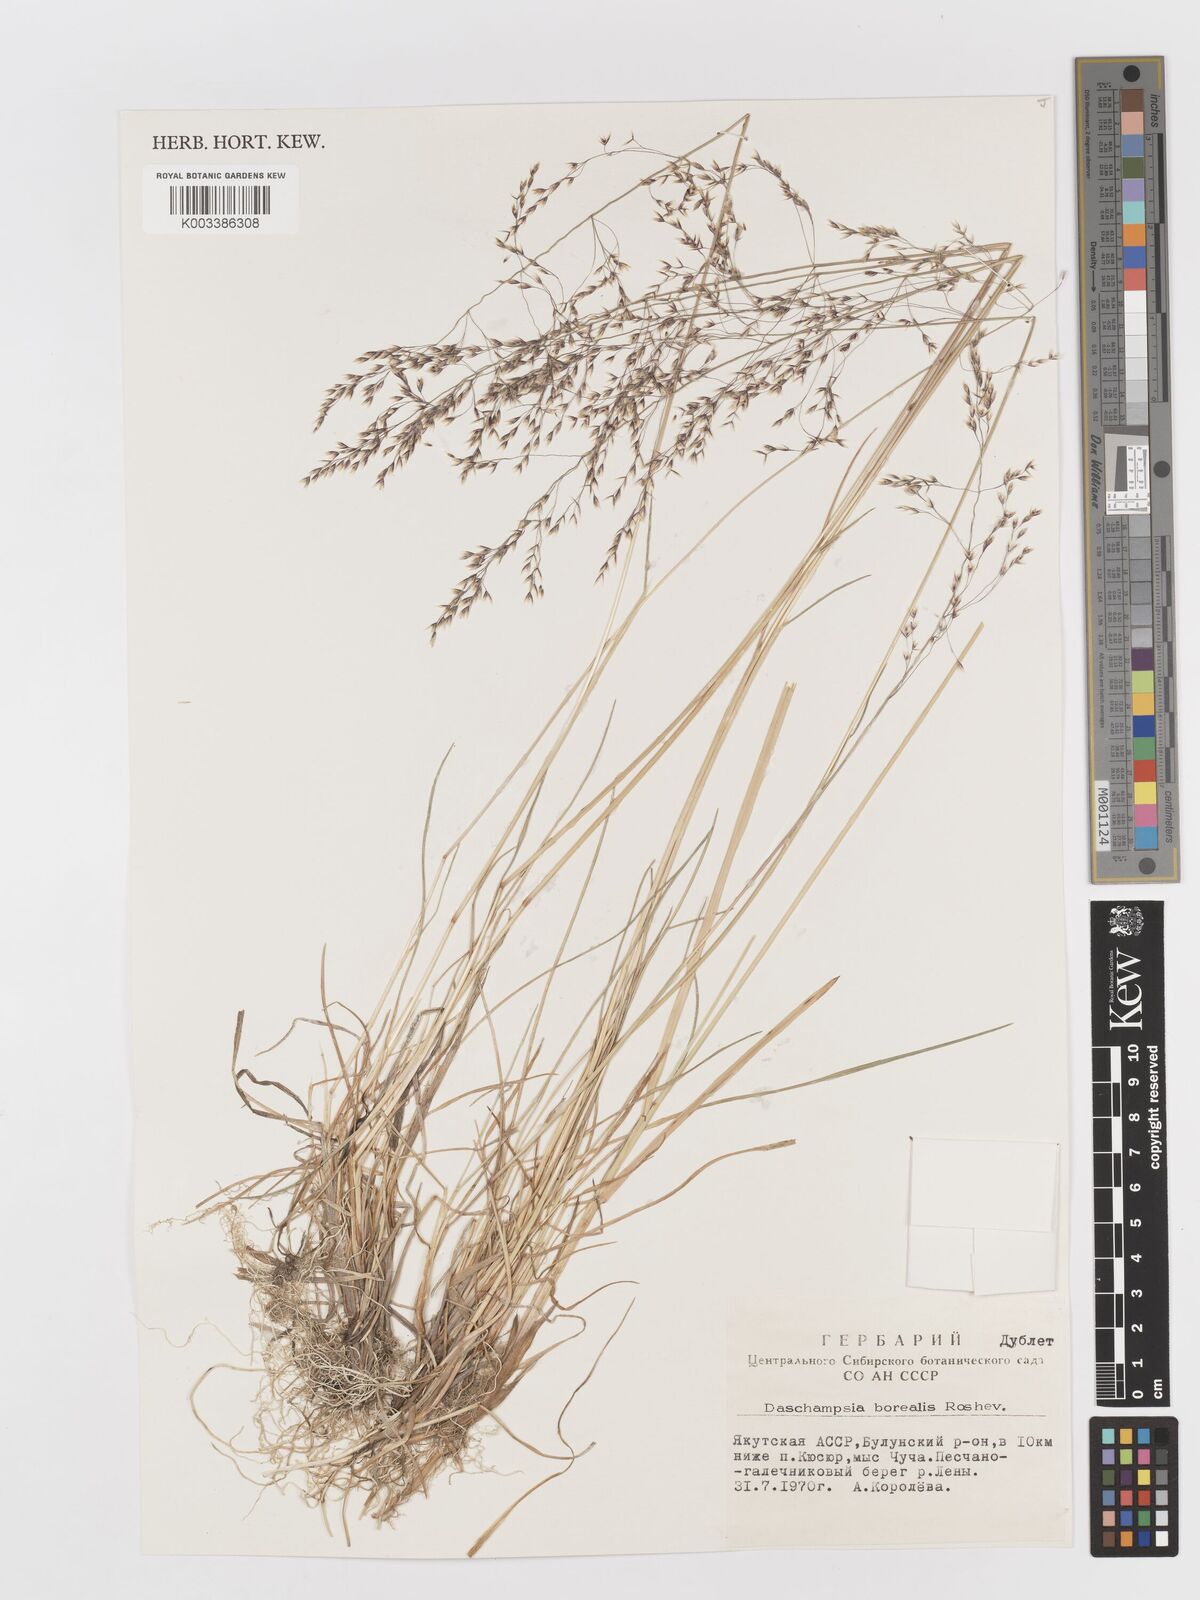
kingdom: Plantae
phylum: Tracheophyta
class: Liliopsida
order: Poales
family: Poaceae
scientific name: Poaceae
